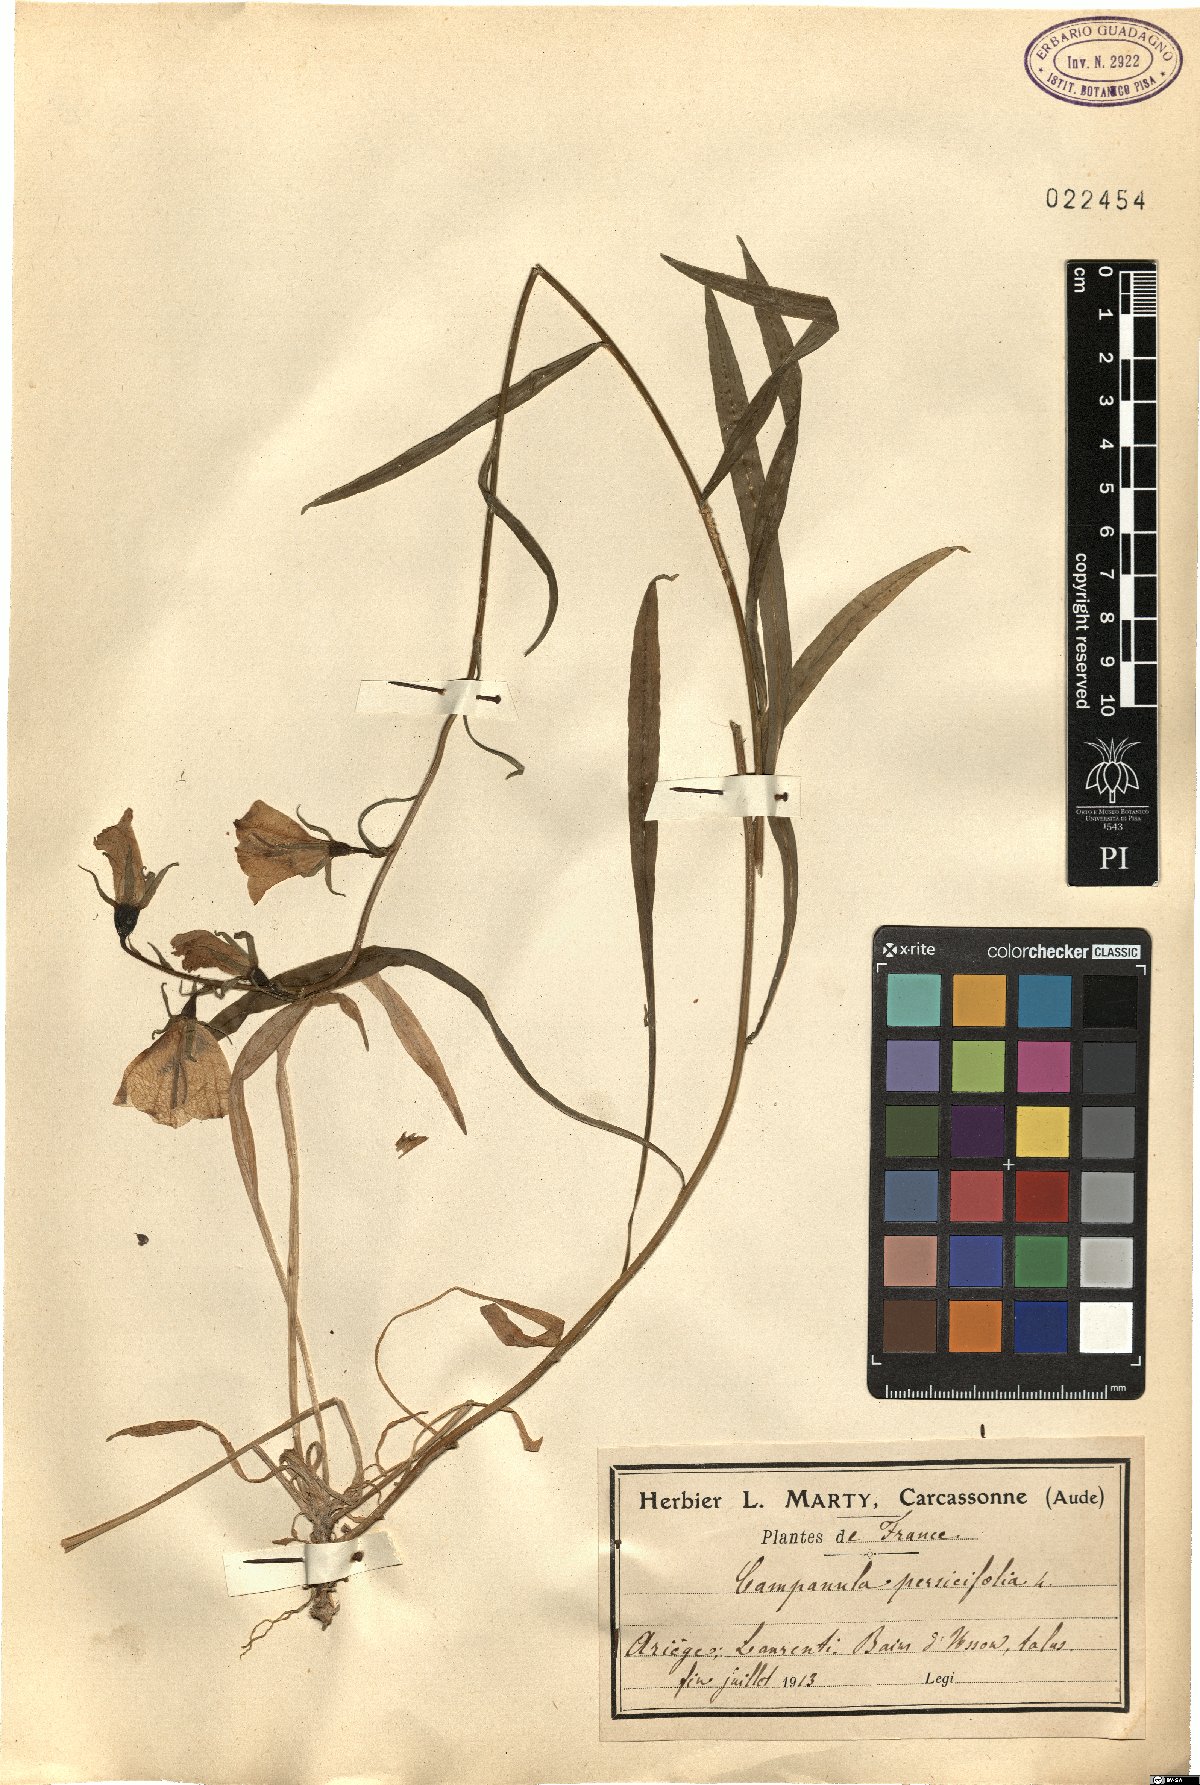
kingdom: Plantae
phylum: Tracheophyta
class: Magnoliopsida
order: Asterales
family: Campanulaceae
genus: Campanula
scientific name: Campanula persicifolia
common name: Peach-leaved bellflower
